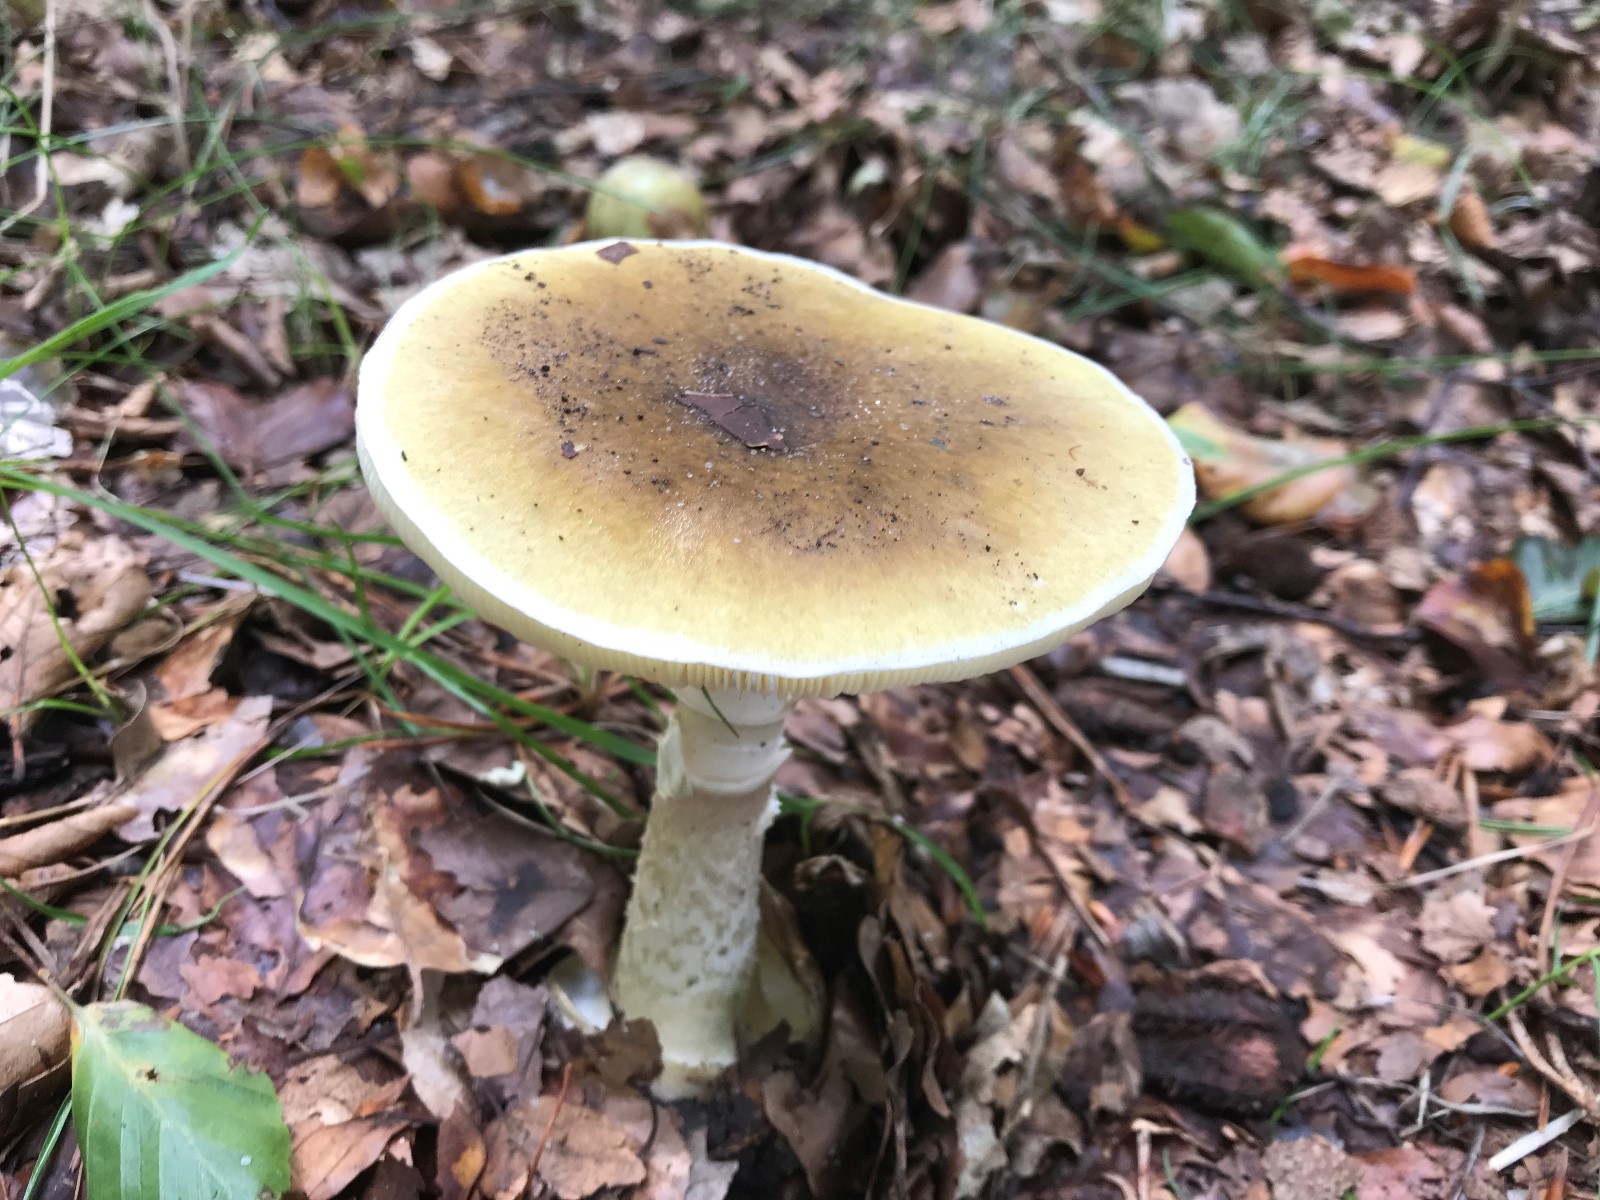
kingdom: Fungi
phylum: Basidiomycota
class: Agaricomycetes
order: Agaricales
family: Amanitaceae
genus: Amanita
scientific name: Amanita phalloides
